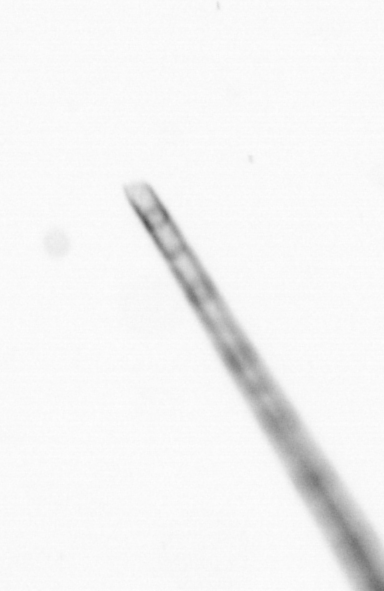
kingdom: Chromista
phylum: Ochrophyta
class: Bacillariophyceae
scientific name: Bacillariophyceae
